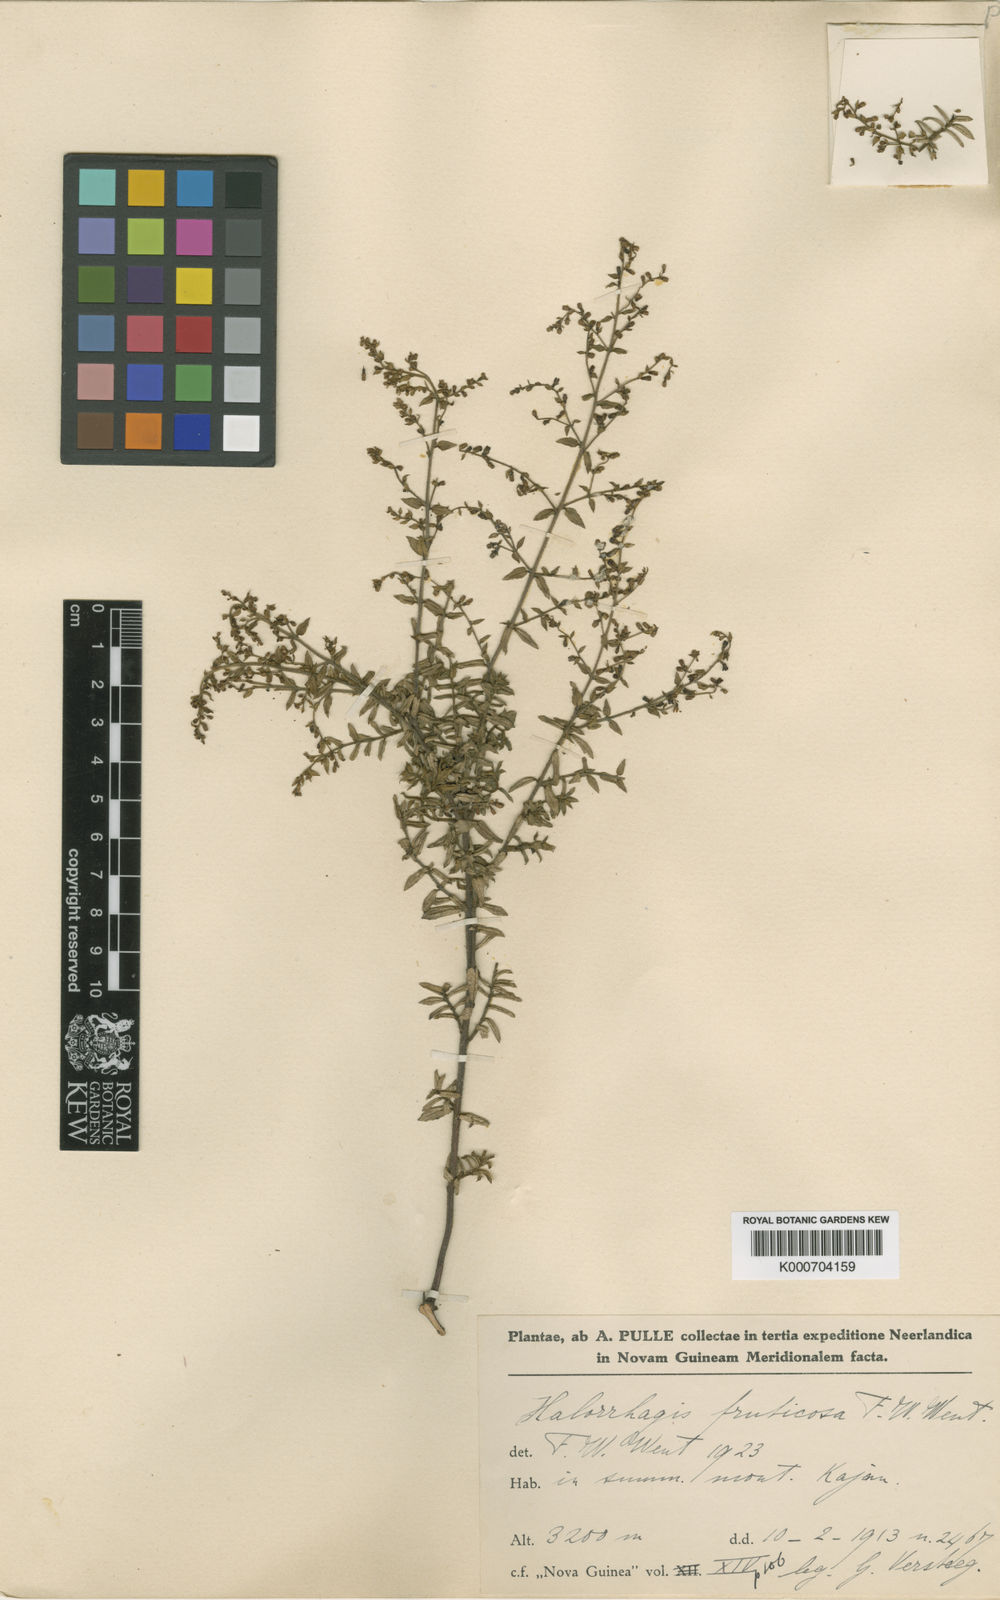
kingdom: Plantae
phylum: Tracheophyta
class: Magnoliopsida
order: Saxifragales
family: Haloragaceae
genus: Gonocarpus
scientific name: Gonocarpus halconensis
